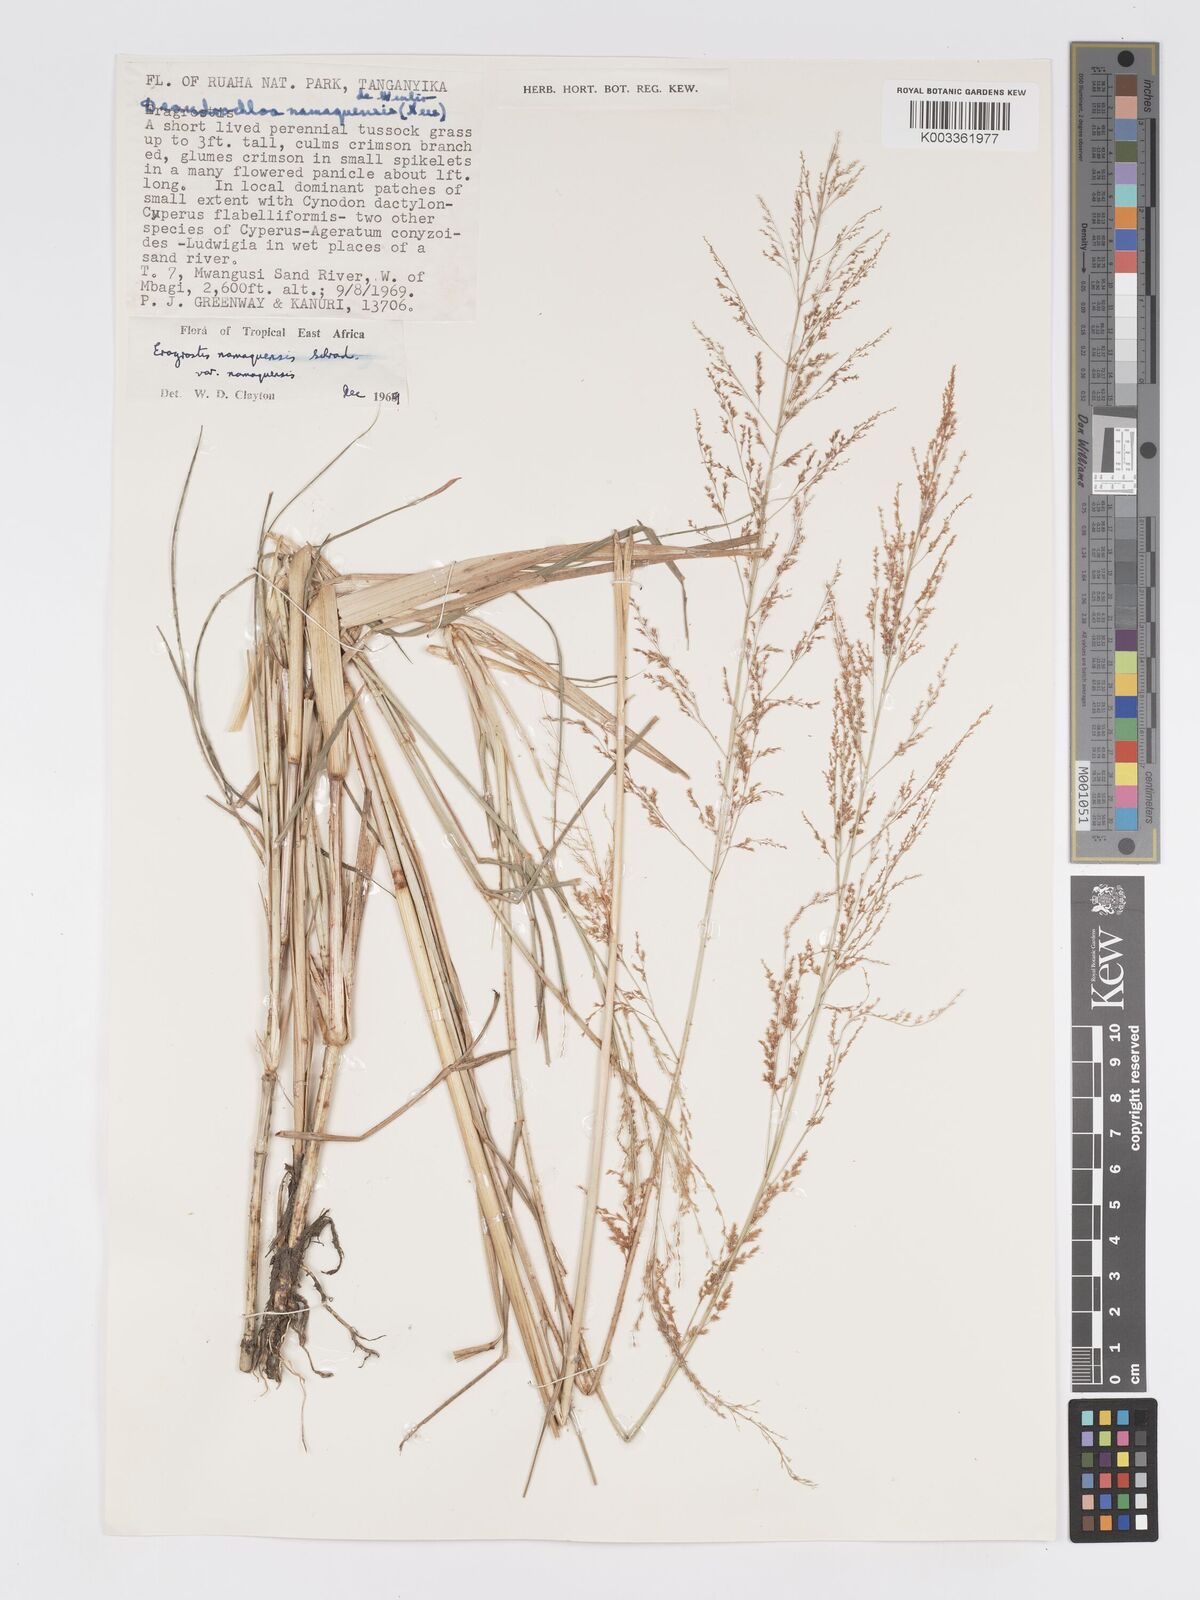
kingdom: Plantae
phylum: Tracheophyta
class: Liliopsida
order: Poales
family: Poaceae
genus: Eragrostis
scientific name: Eragrostis japonica
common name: Pond lovegrass
